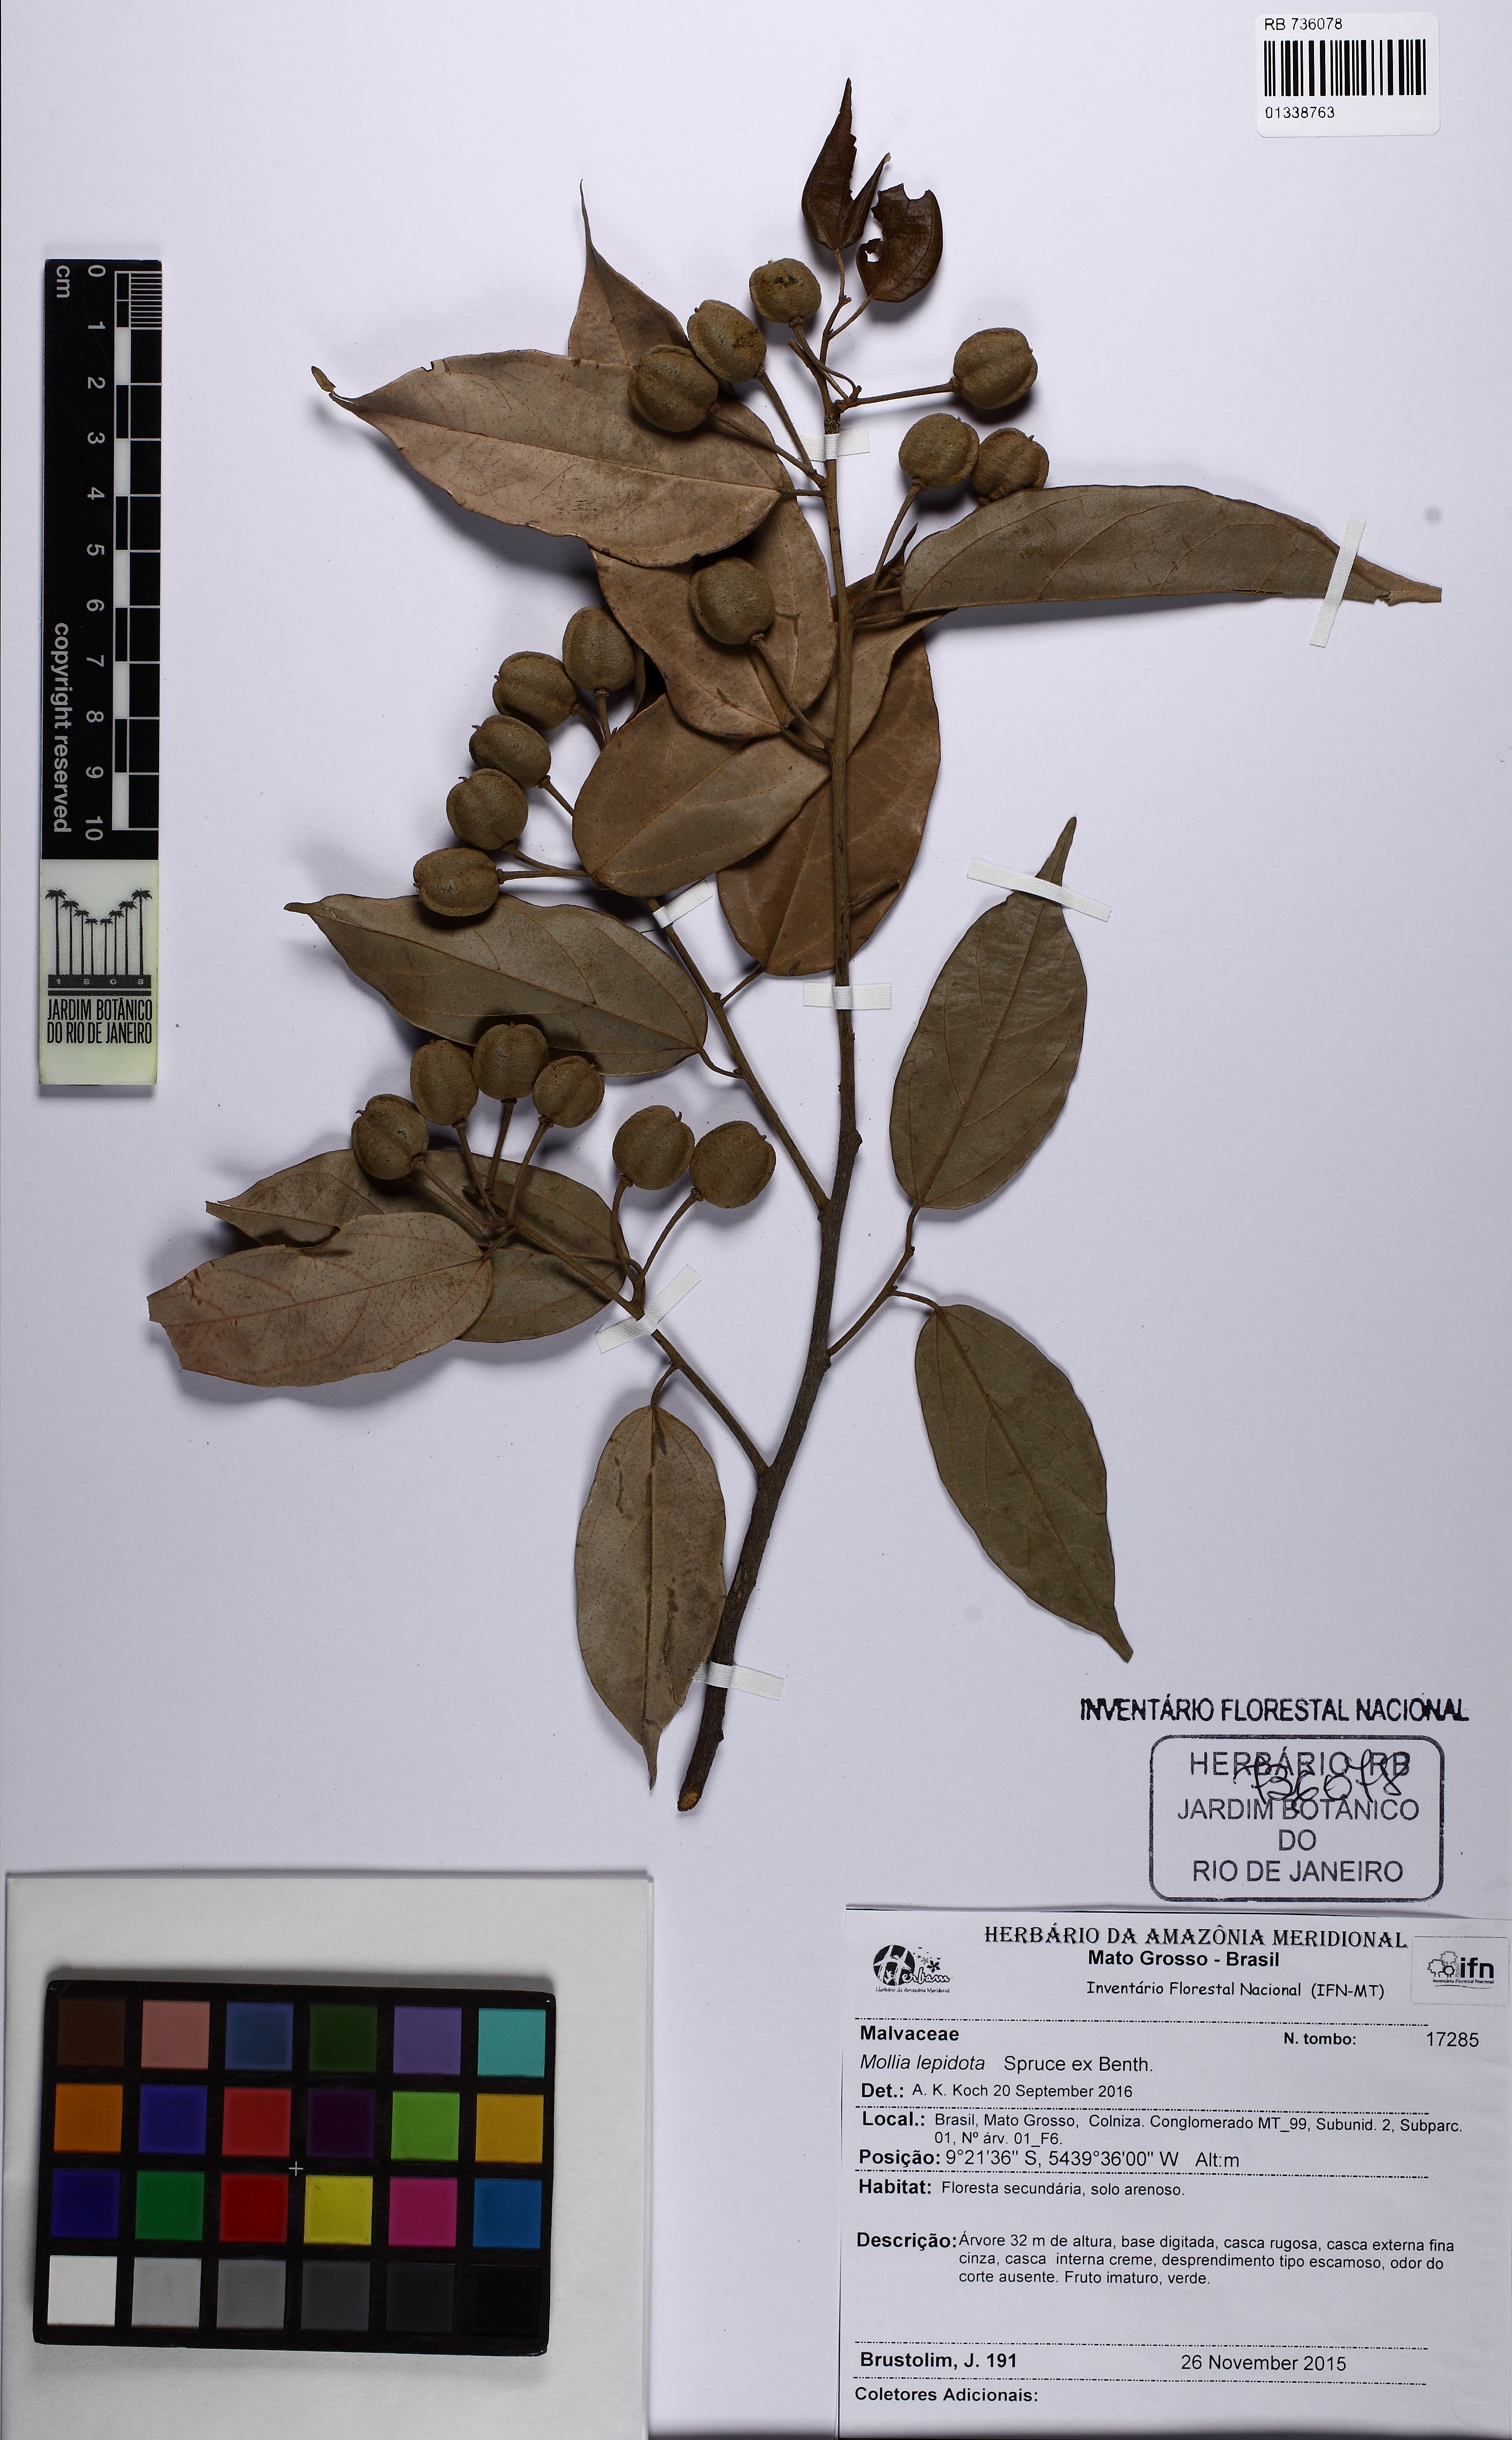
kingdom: Plantae
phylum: Tracheophyta
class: Magnoliopsida
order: Malvales
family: Malvaceae
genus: Mollia
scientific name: Mollia lepidota
